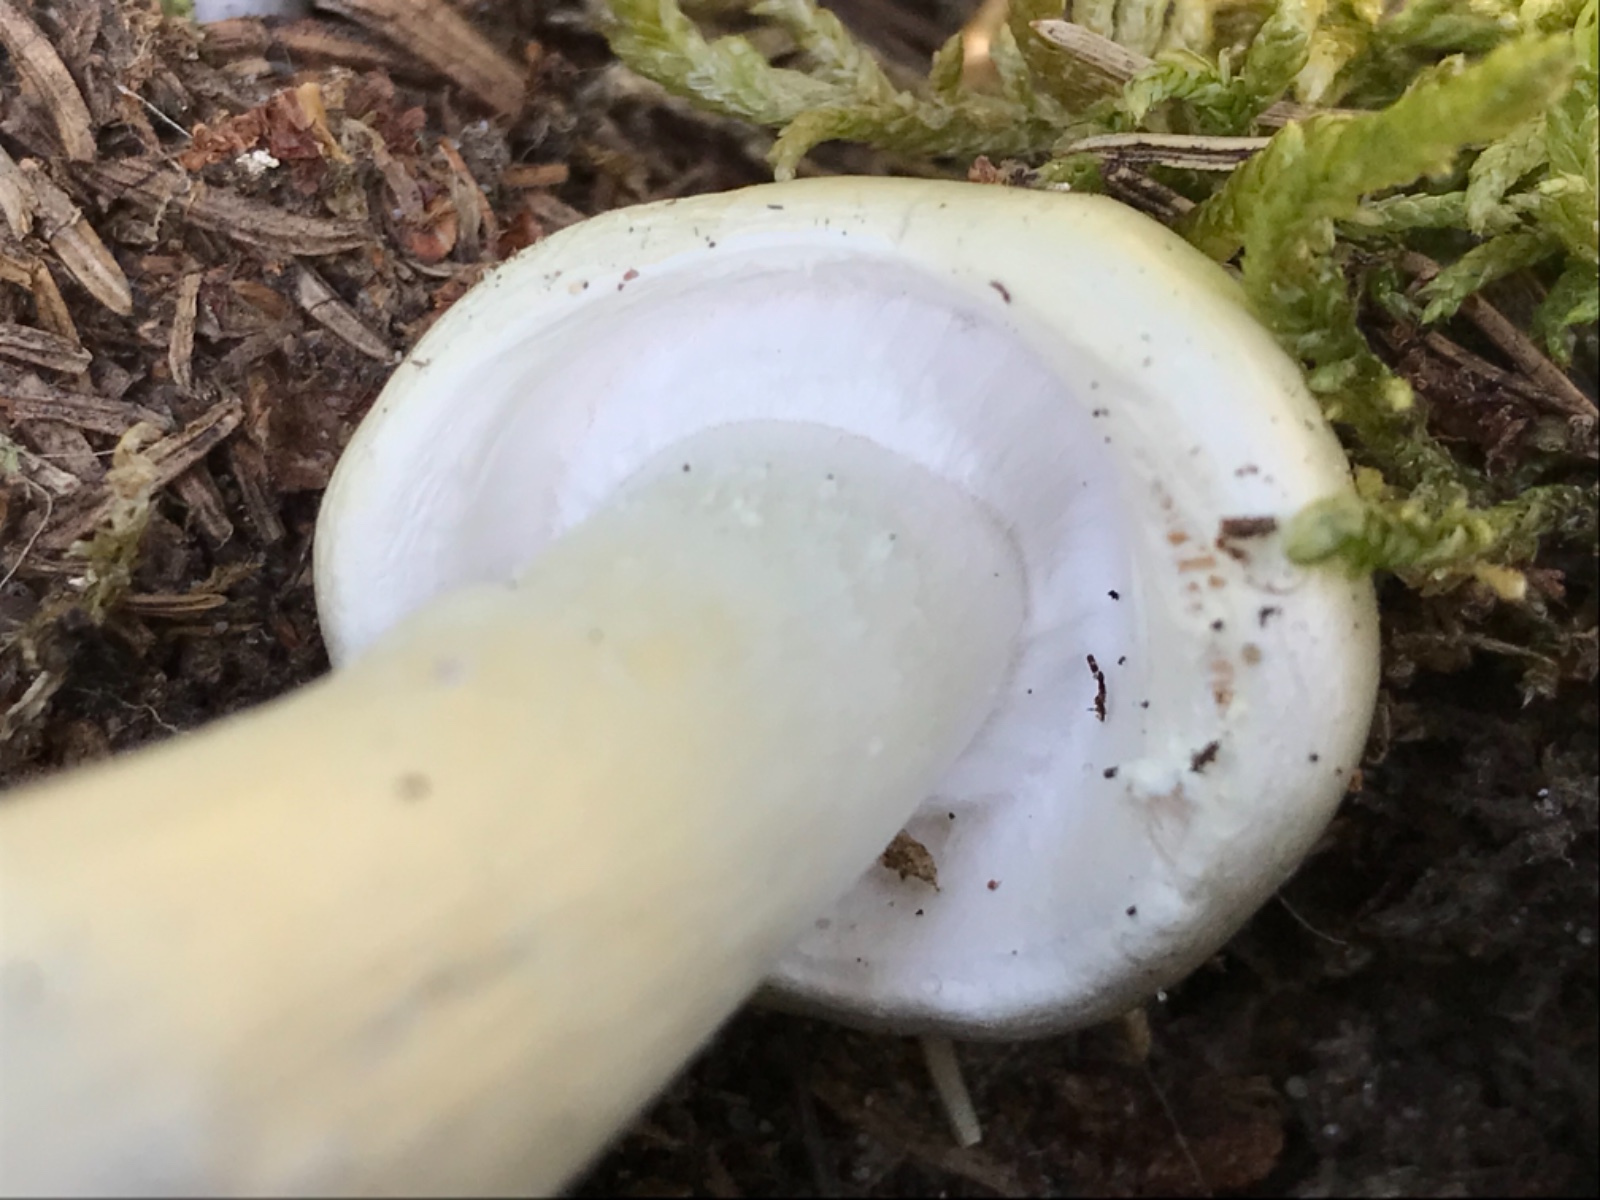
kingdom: Fungi
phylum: Basidiomycota
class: Agaricomycetes
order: Agaricales
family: Amanitaceae
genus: Amanita
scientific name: Amanita virosa
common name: snehvid fluesvamp
